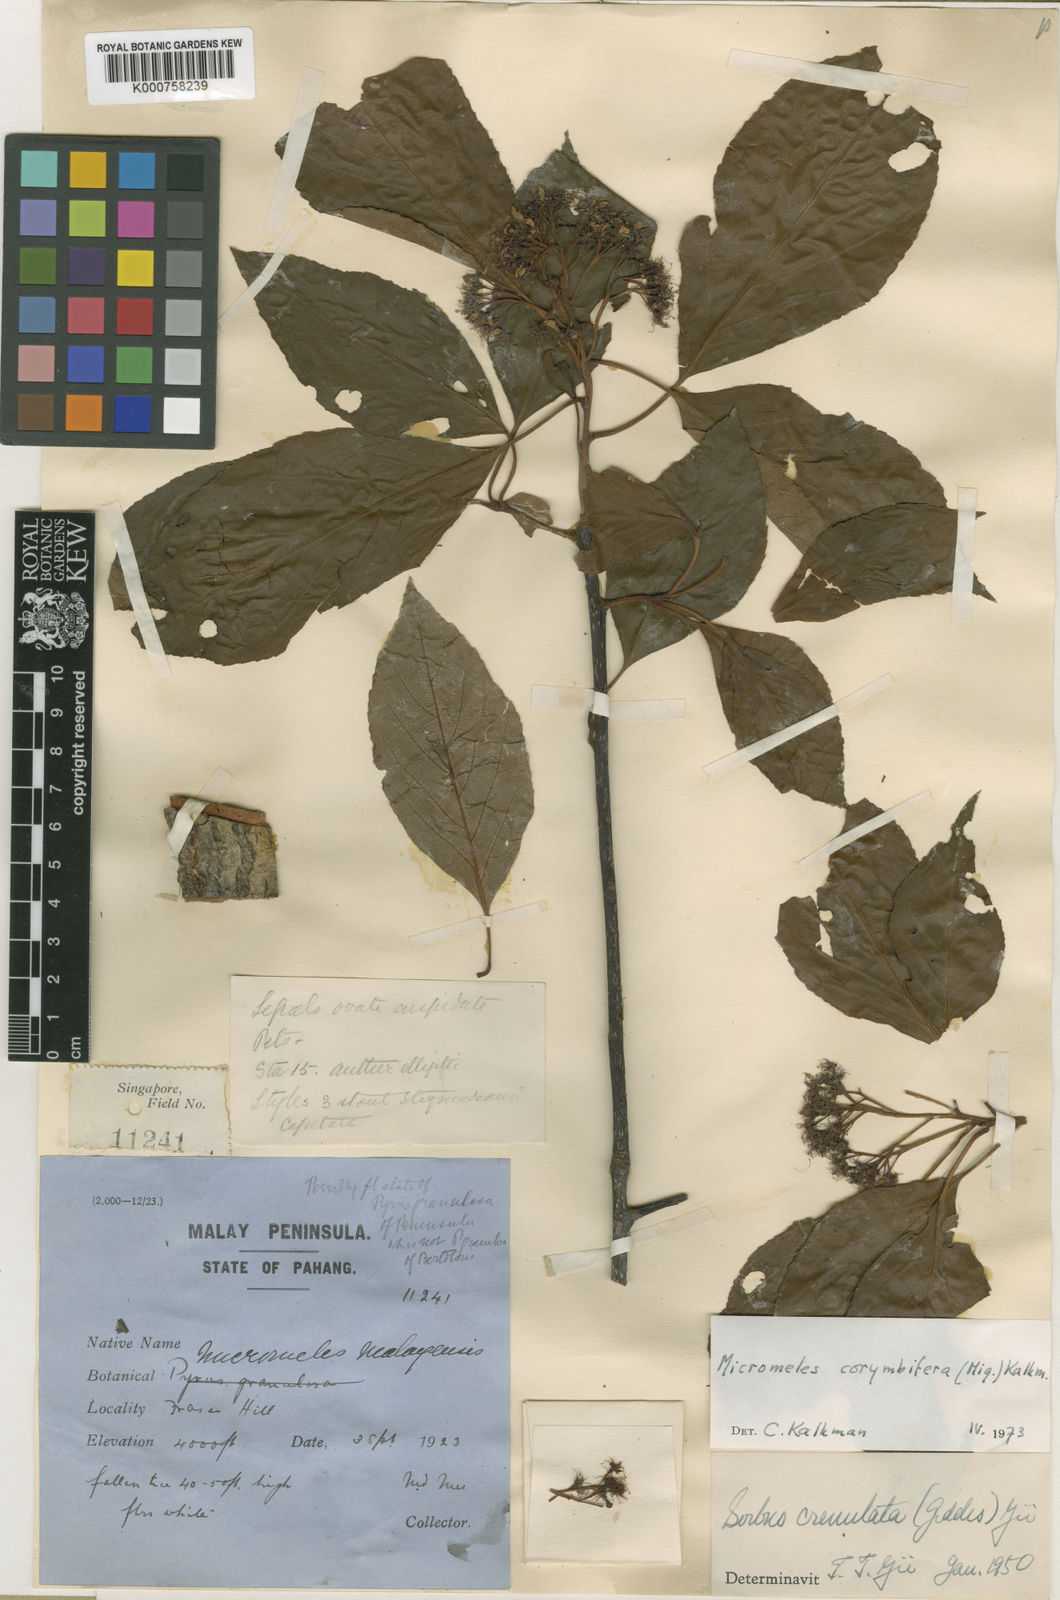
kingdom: Plantae
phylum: Tracheophyta
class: Magnoliopsida
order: Rosales
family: Rosaceae
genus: Sorbus
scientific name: Sorbus
